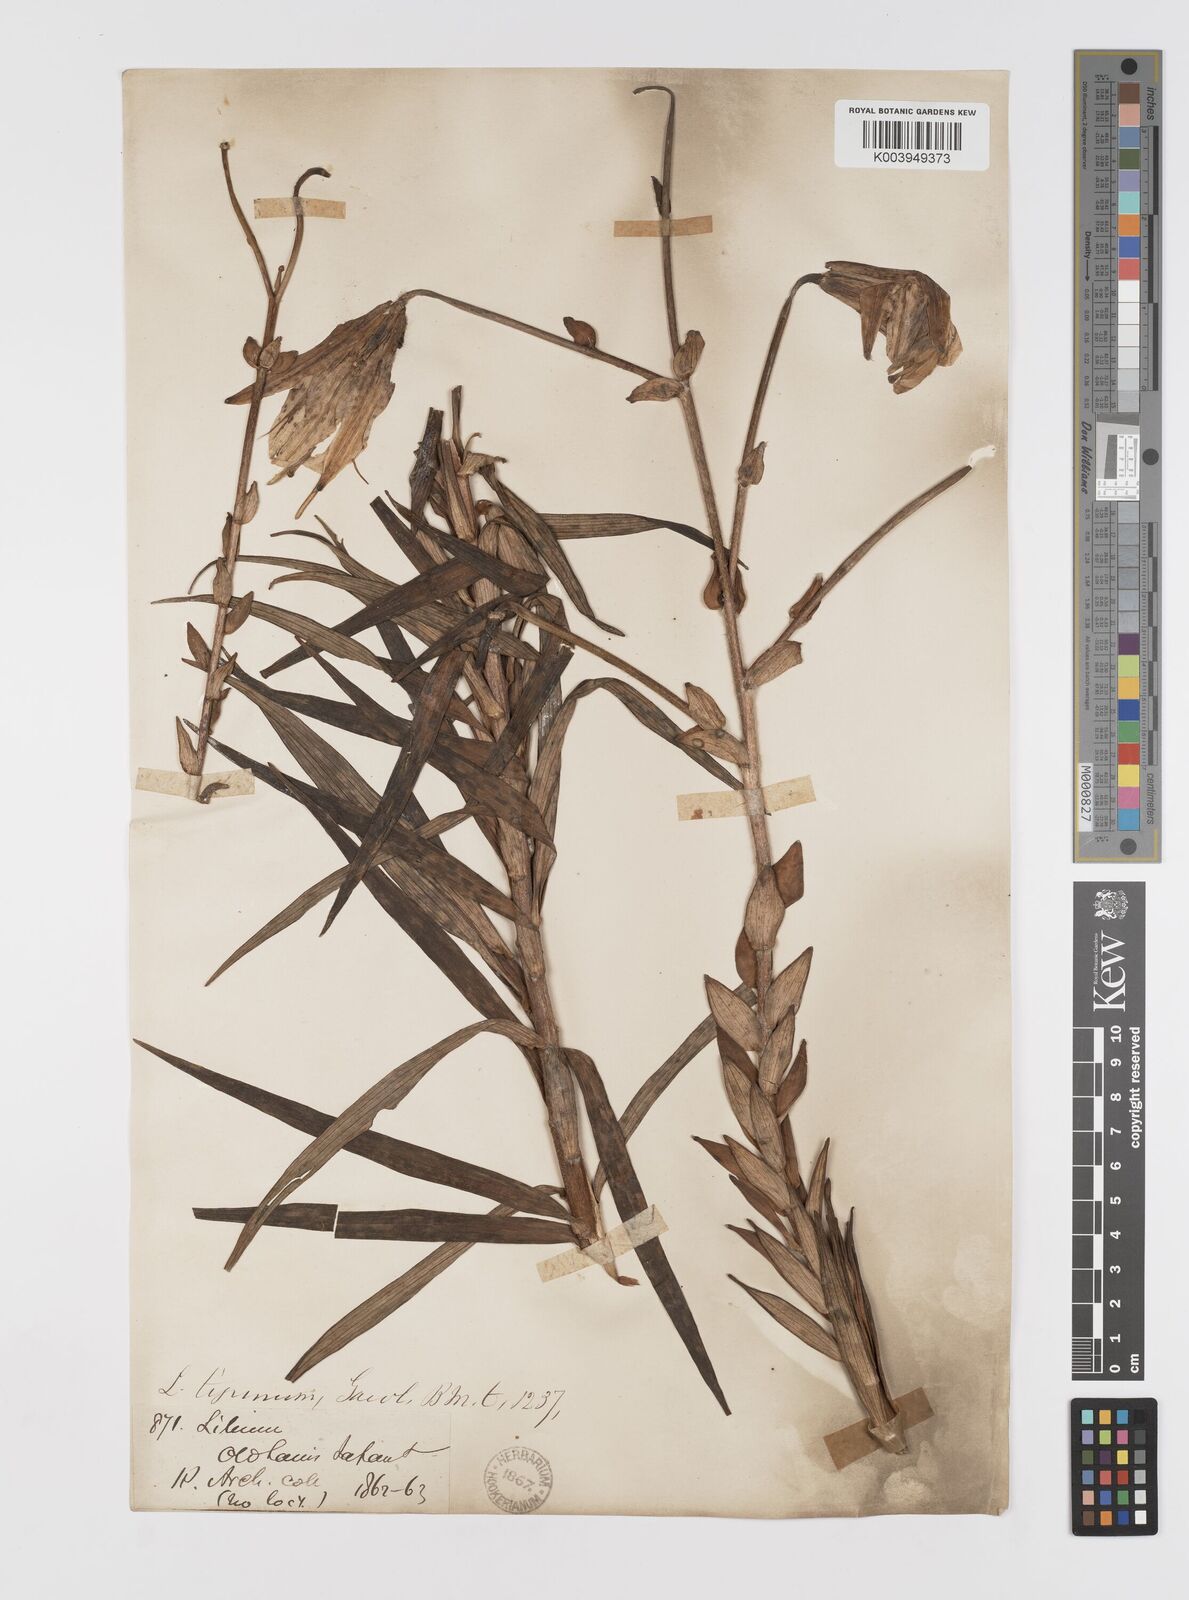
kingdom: Plantae
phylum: Tracheophyta
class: Liliopsida
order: Liliales
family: Liliaceae
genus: Lilium
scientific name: Lilium lancifolium
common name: Tiger lily
